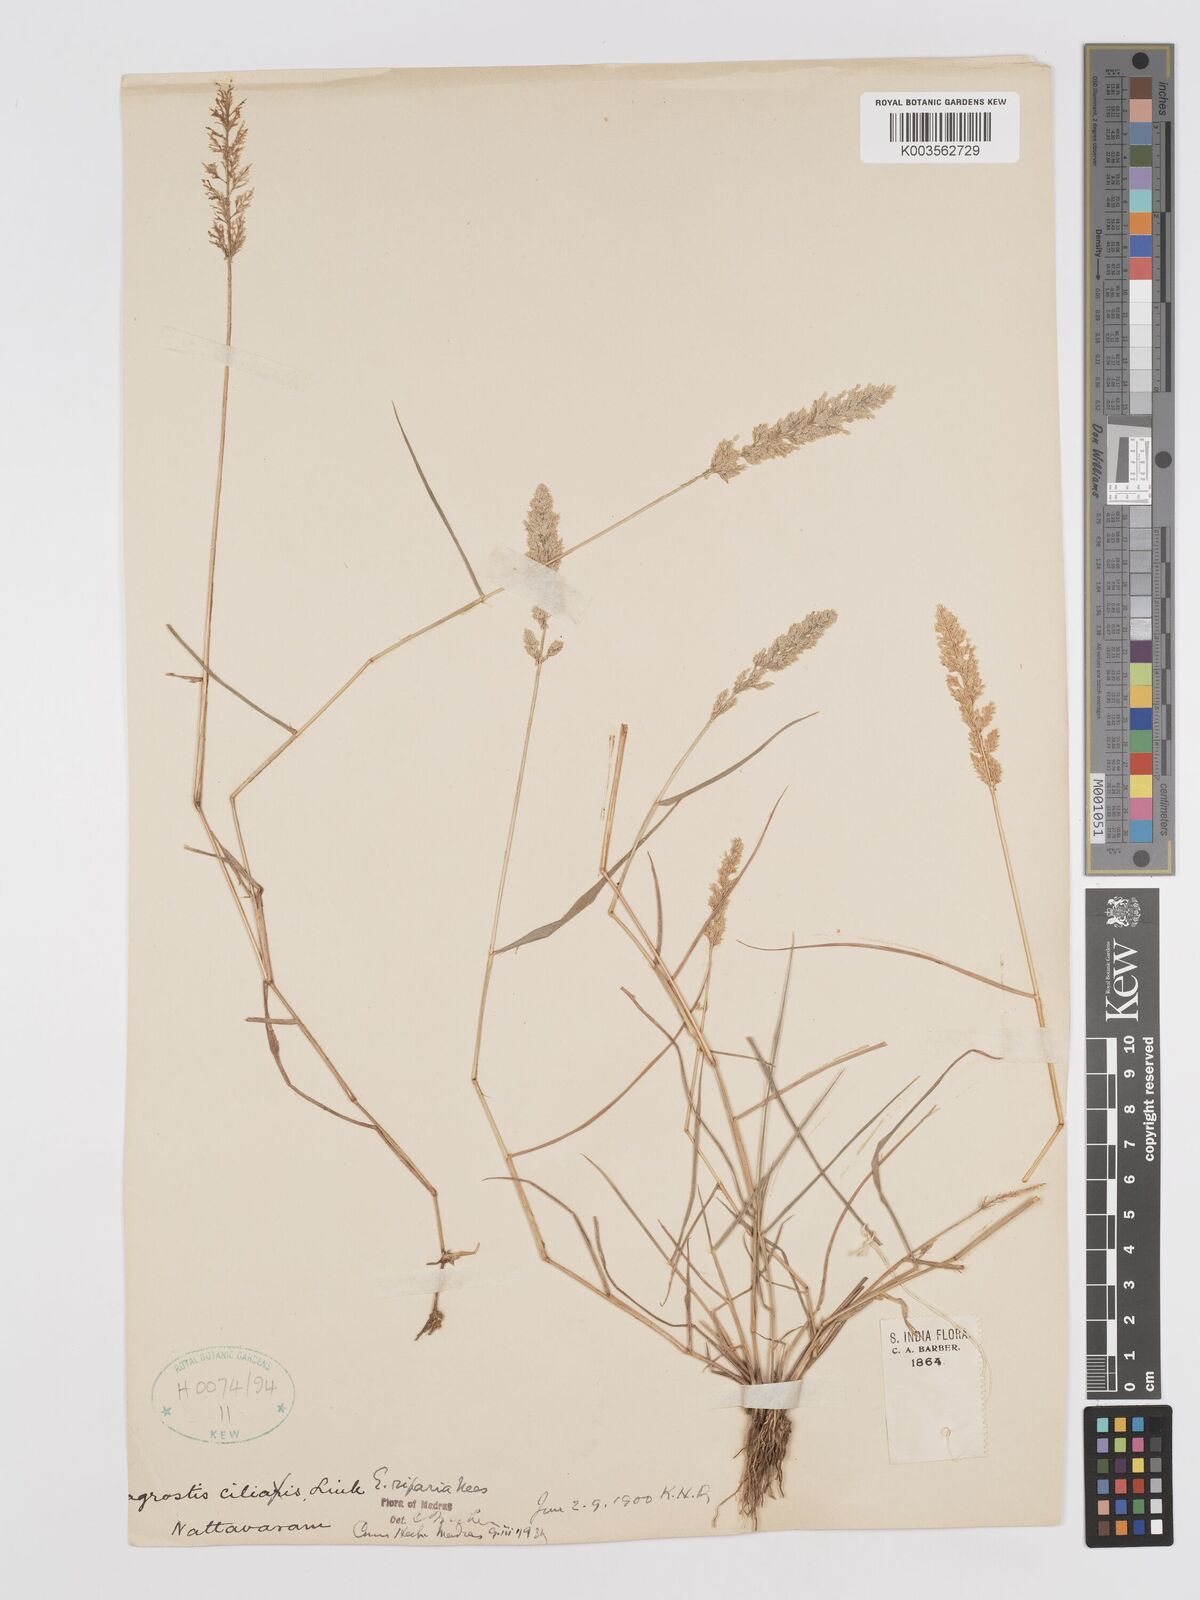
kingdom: Plantae
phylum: Tracheophyta
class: Liliopsida
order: Poales
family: Poaceae
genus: Eragrostis
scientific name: Eragrostis riparia
